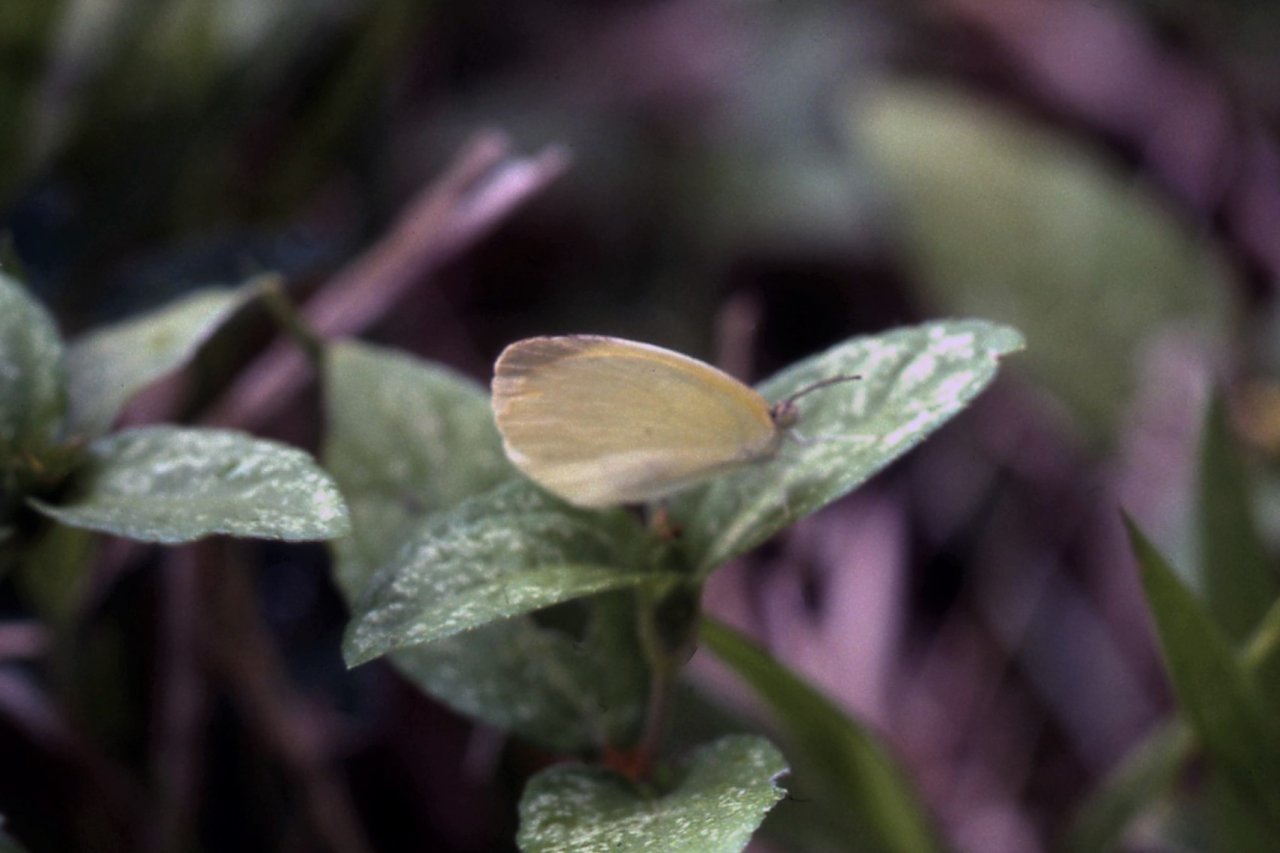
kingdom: Animalia
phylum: Arthropoda
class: Insecta
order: Lepidoptera
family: Pieridae
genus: Pyrisitia
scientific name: Pyrisitia venusta
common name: Pale Yellow
